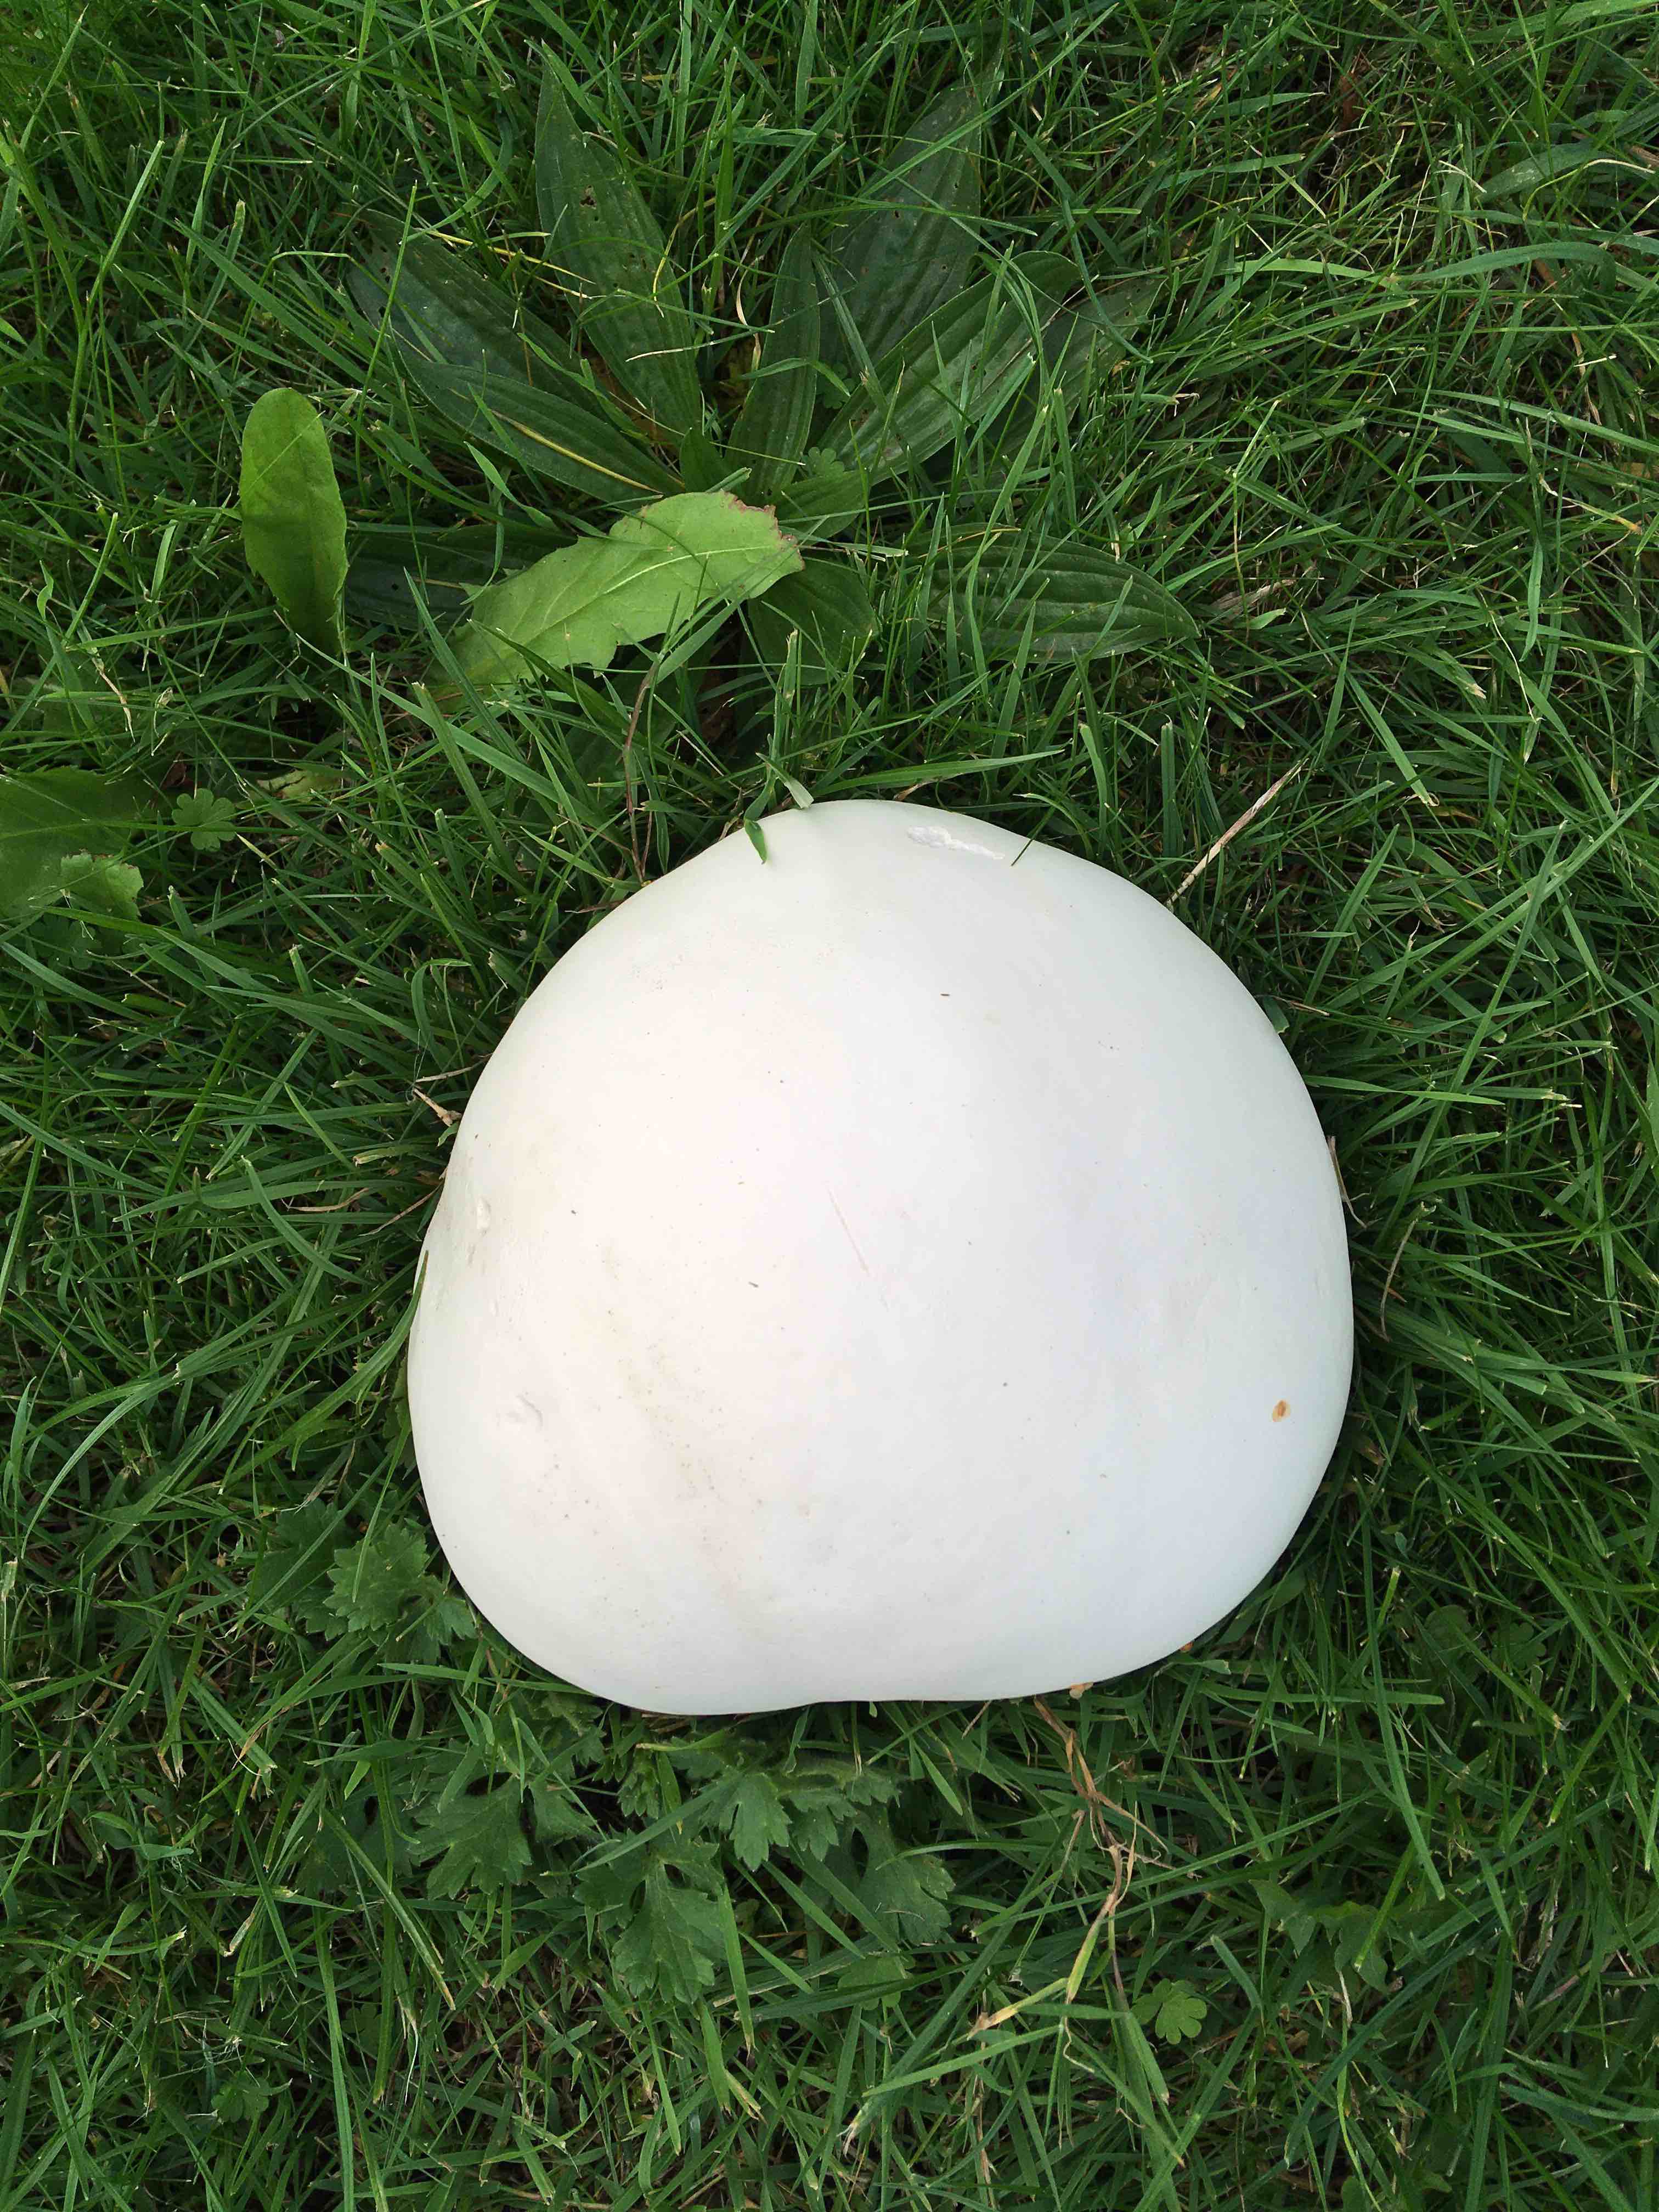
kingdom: Fungi
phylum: Basidiomycota
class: Agaricomycetes
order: Agaricales
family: Lycoperdaceae
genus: Calvatia
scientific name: Calvatia gigantea
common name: kæmpestøvbold
